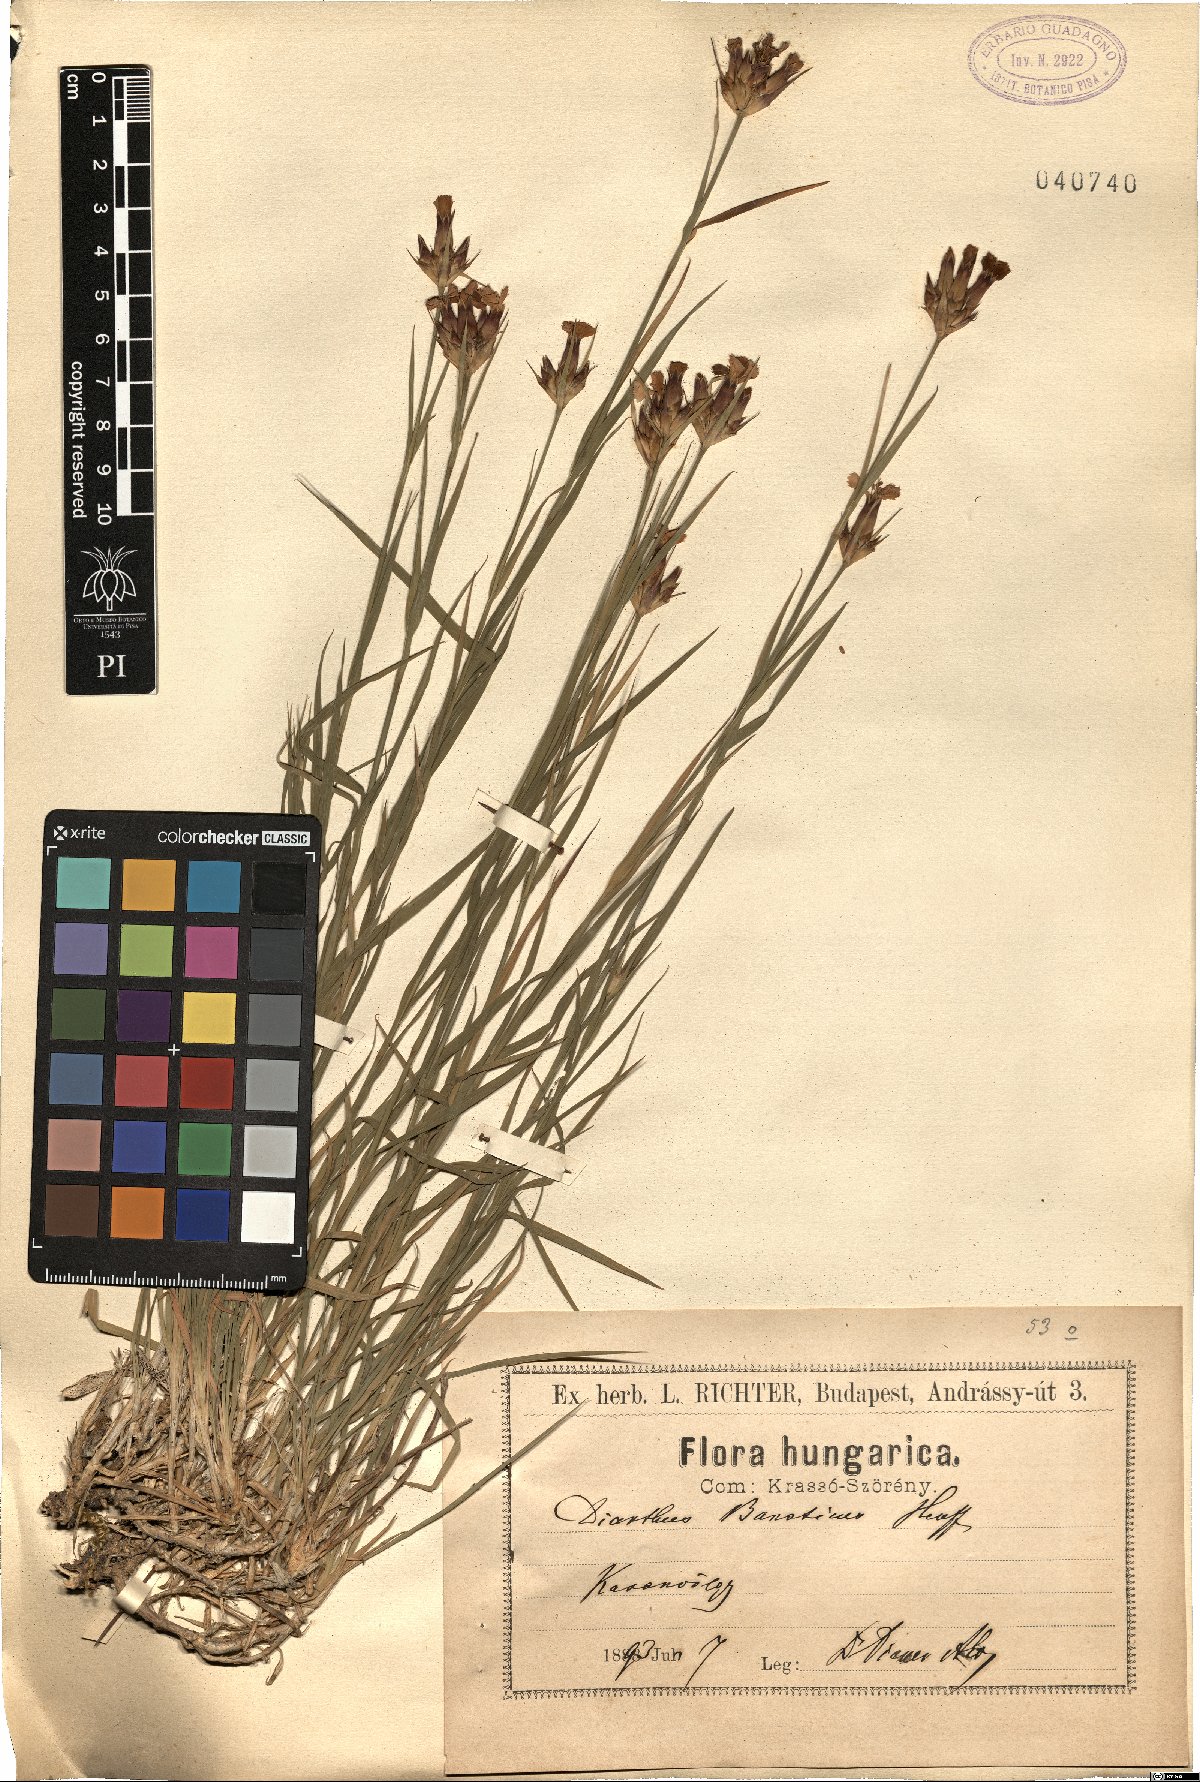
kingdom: Plantae
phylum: Tracheophyta
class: Magnoliopsida
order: Caryophyllales
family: Caryophyllaceae
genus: Dianthus
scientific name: Dianthus giganteus
